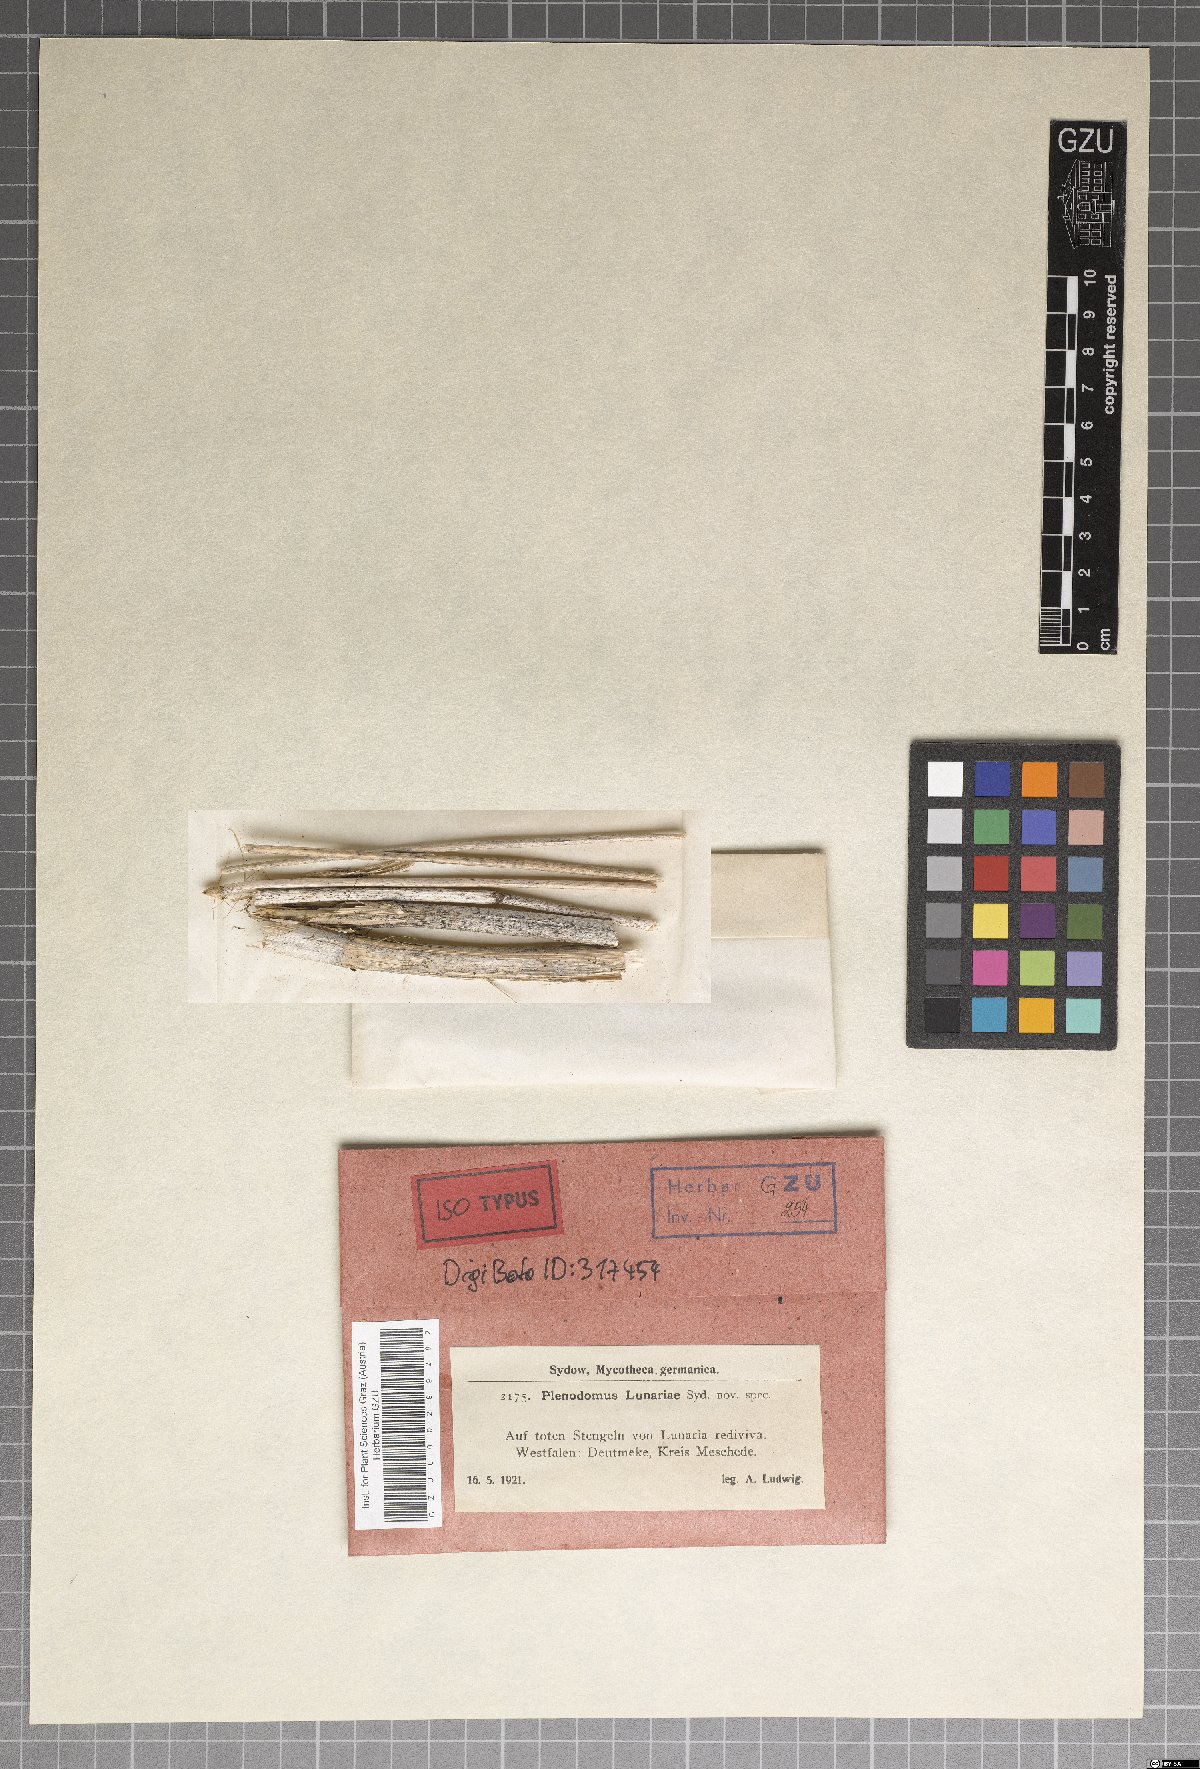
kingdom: Fungi
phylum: Ascomycota
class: Dothideomycetes
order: Pleosporales
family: Didymellaceae
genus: Phoma
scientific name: Phoma sublingam
